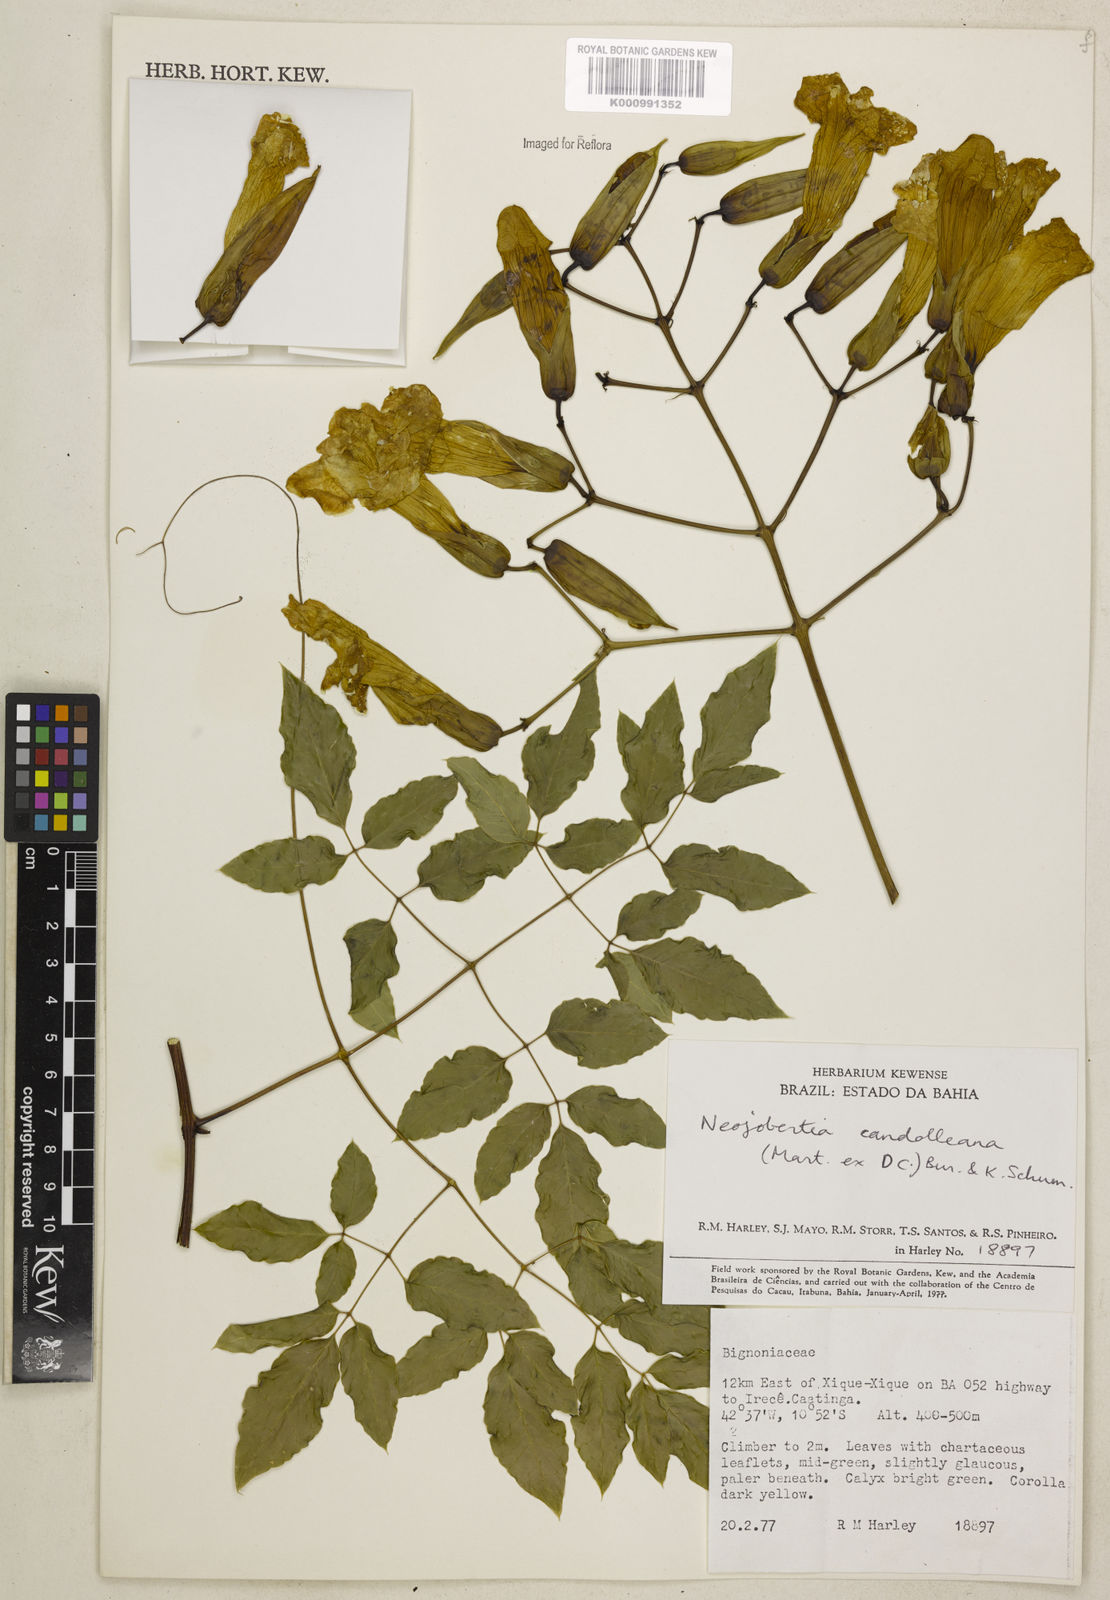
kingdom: Plantae
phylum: Tracheophyta
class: Magnoliopsida
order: Lamiales
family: Bignoniaceae
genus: Adenocalymma
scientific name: Adenocalymma candolleanum
